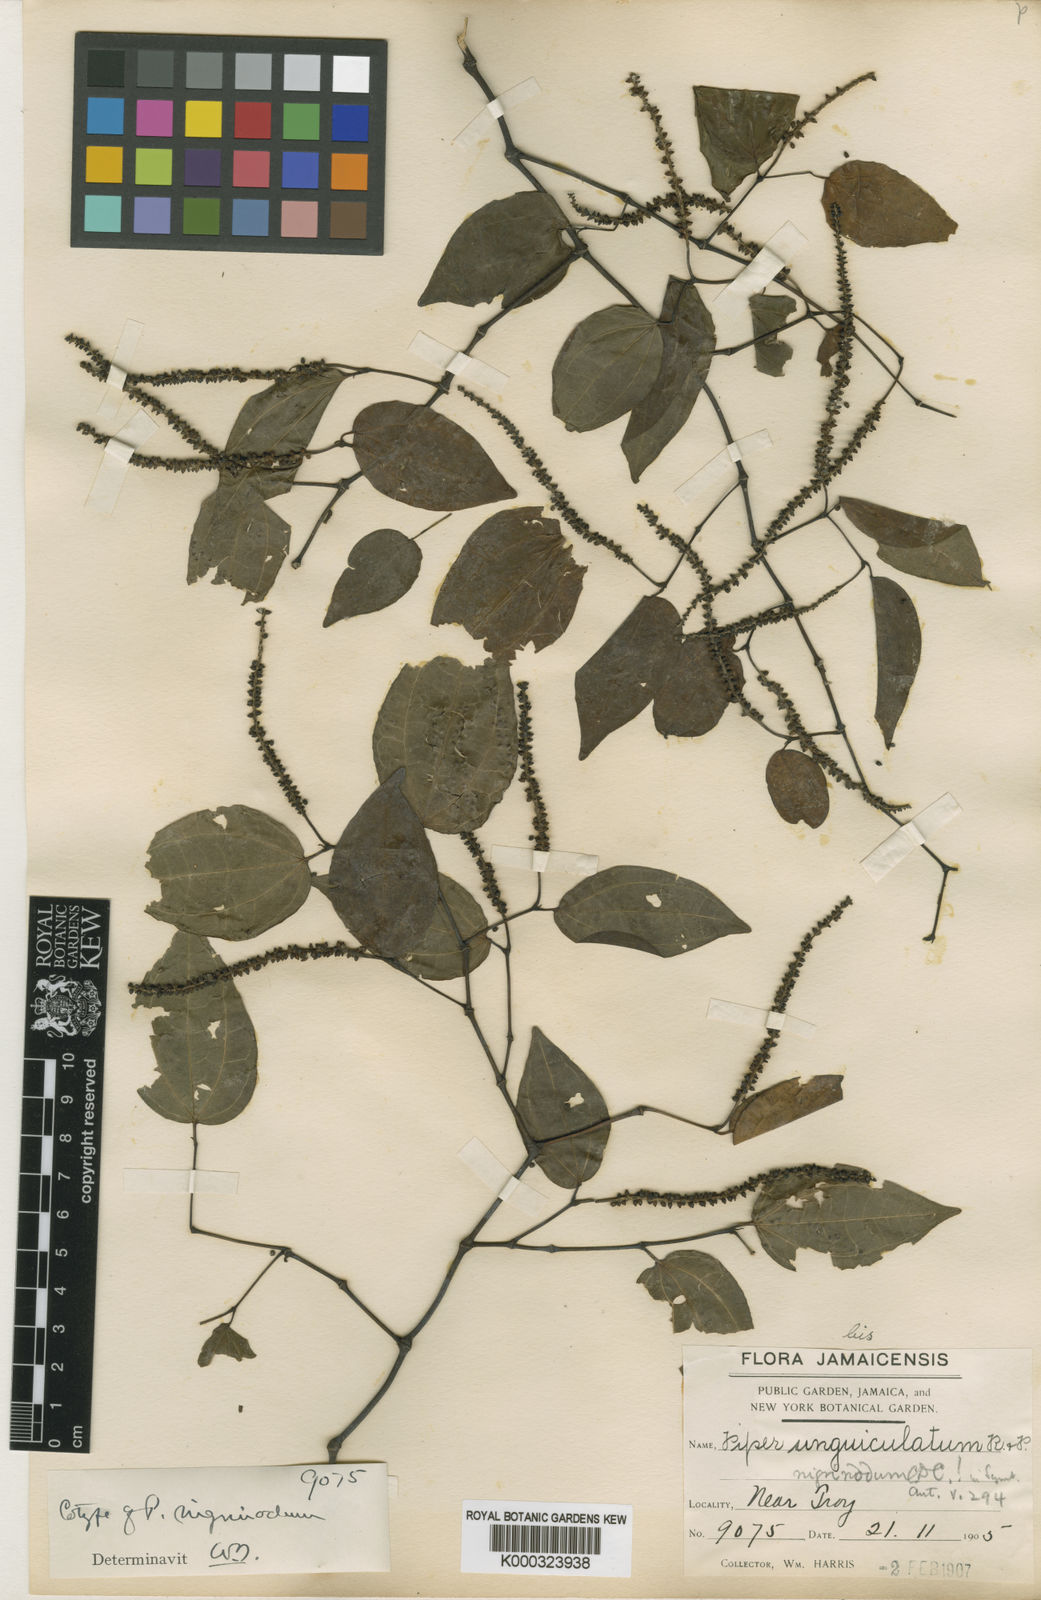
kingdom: Plantae
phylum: Tracheophyta
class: Magnoliopsida
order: Piperales
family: Piperaceae
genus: Piper
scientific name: Piper amalago
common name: Pepper-elder
